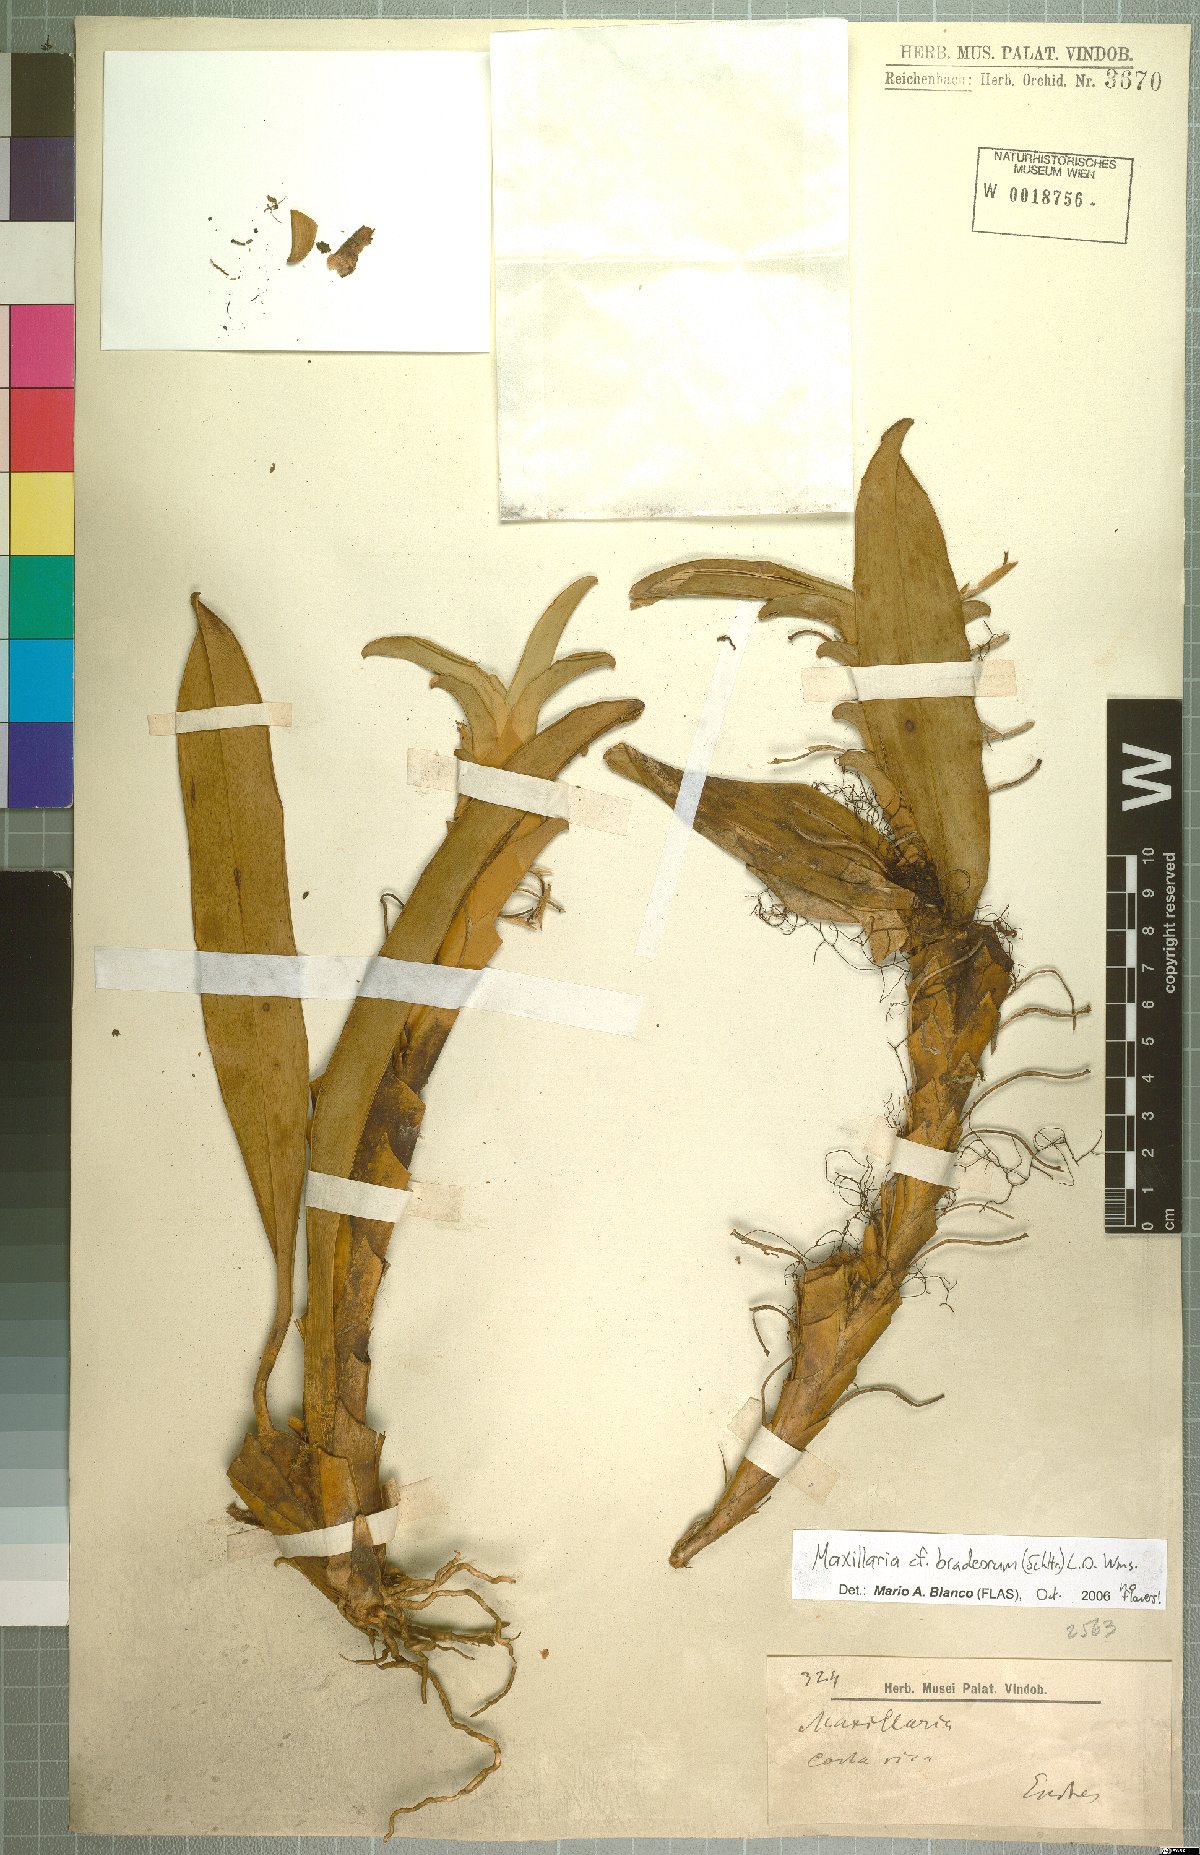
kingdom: Plantae
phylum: Tracheophyta
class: Liliopsida
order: Asparagales
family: Orchidaceae
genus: Maxillaria
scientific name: Maxillaria bradeorum
